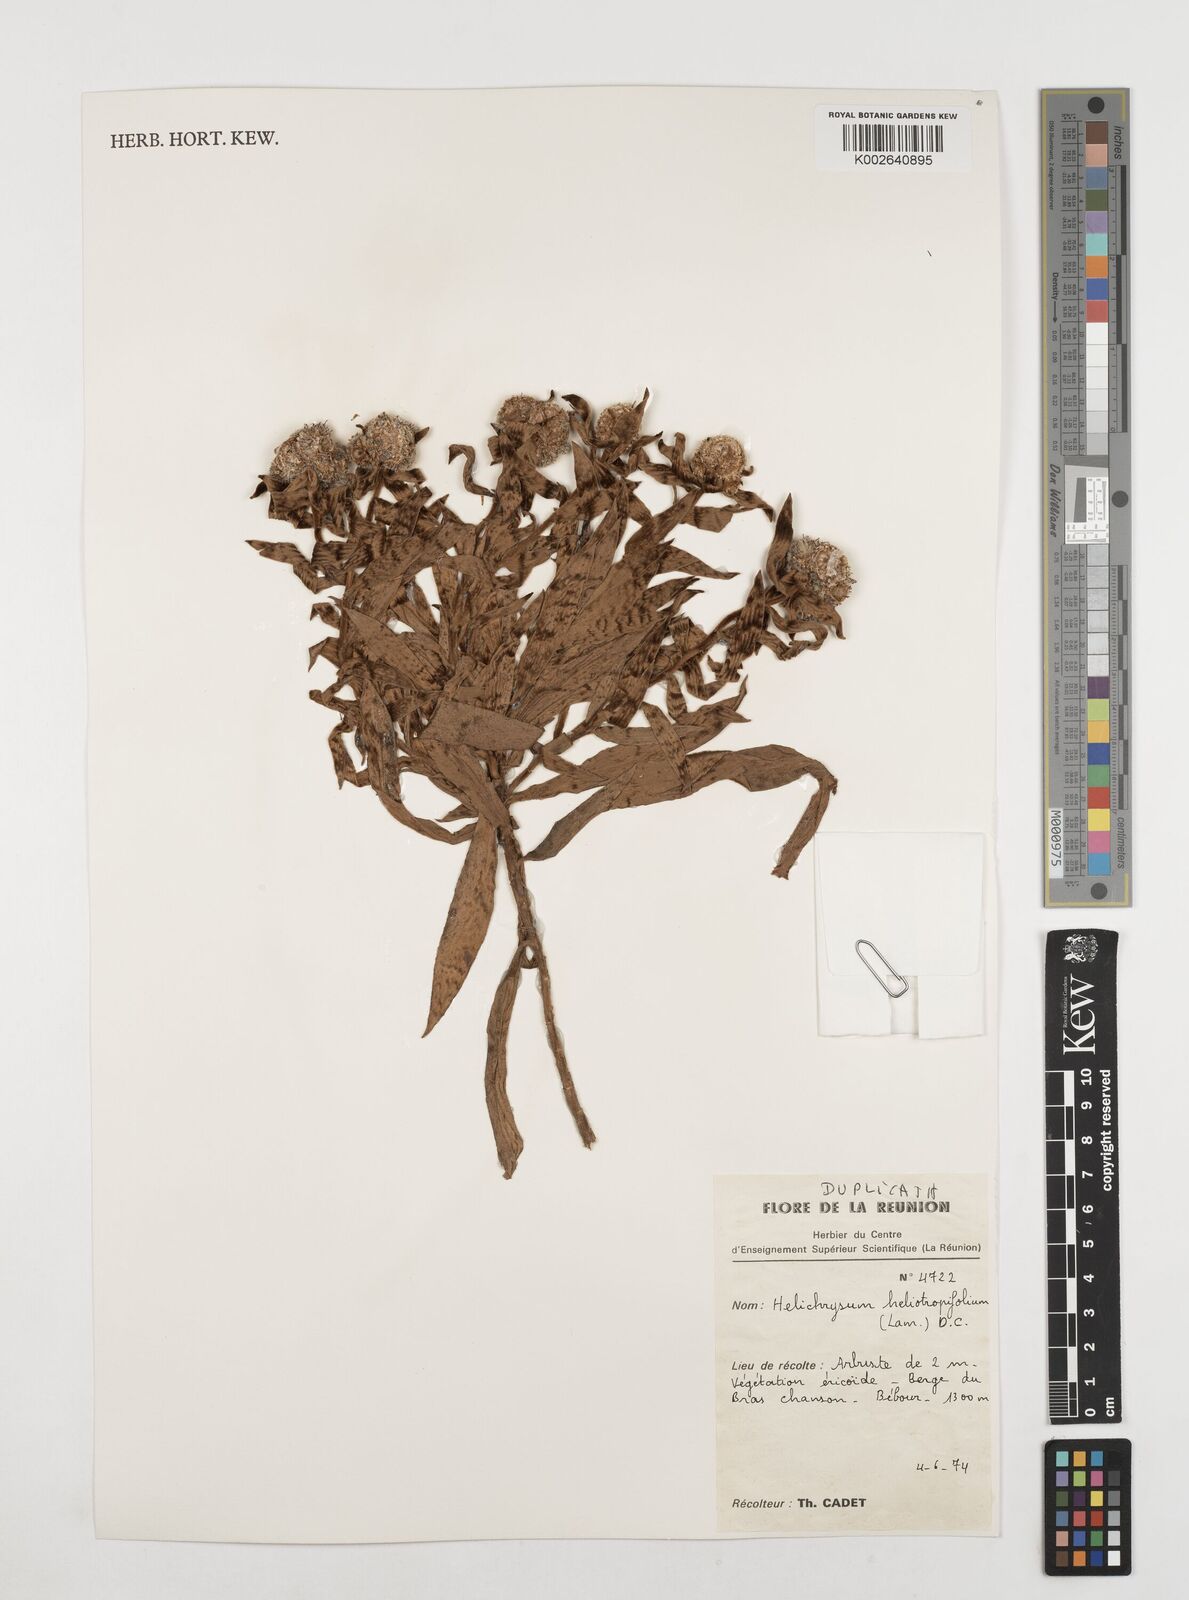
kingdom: Plantae
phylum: Tracheophyta
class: Magnoliopsida
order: Asterales
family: Asteraceae
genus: Helichrysum
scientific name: Helichrysum heliotropifolium
